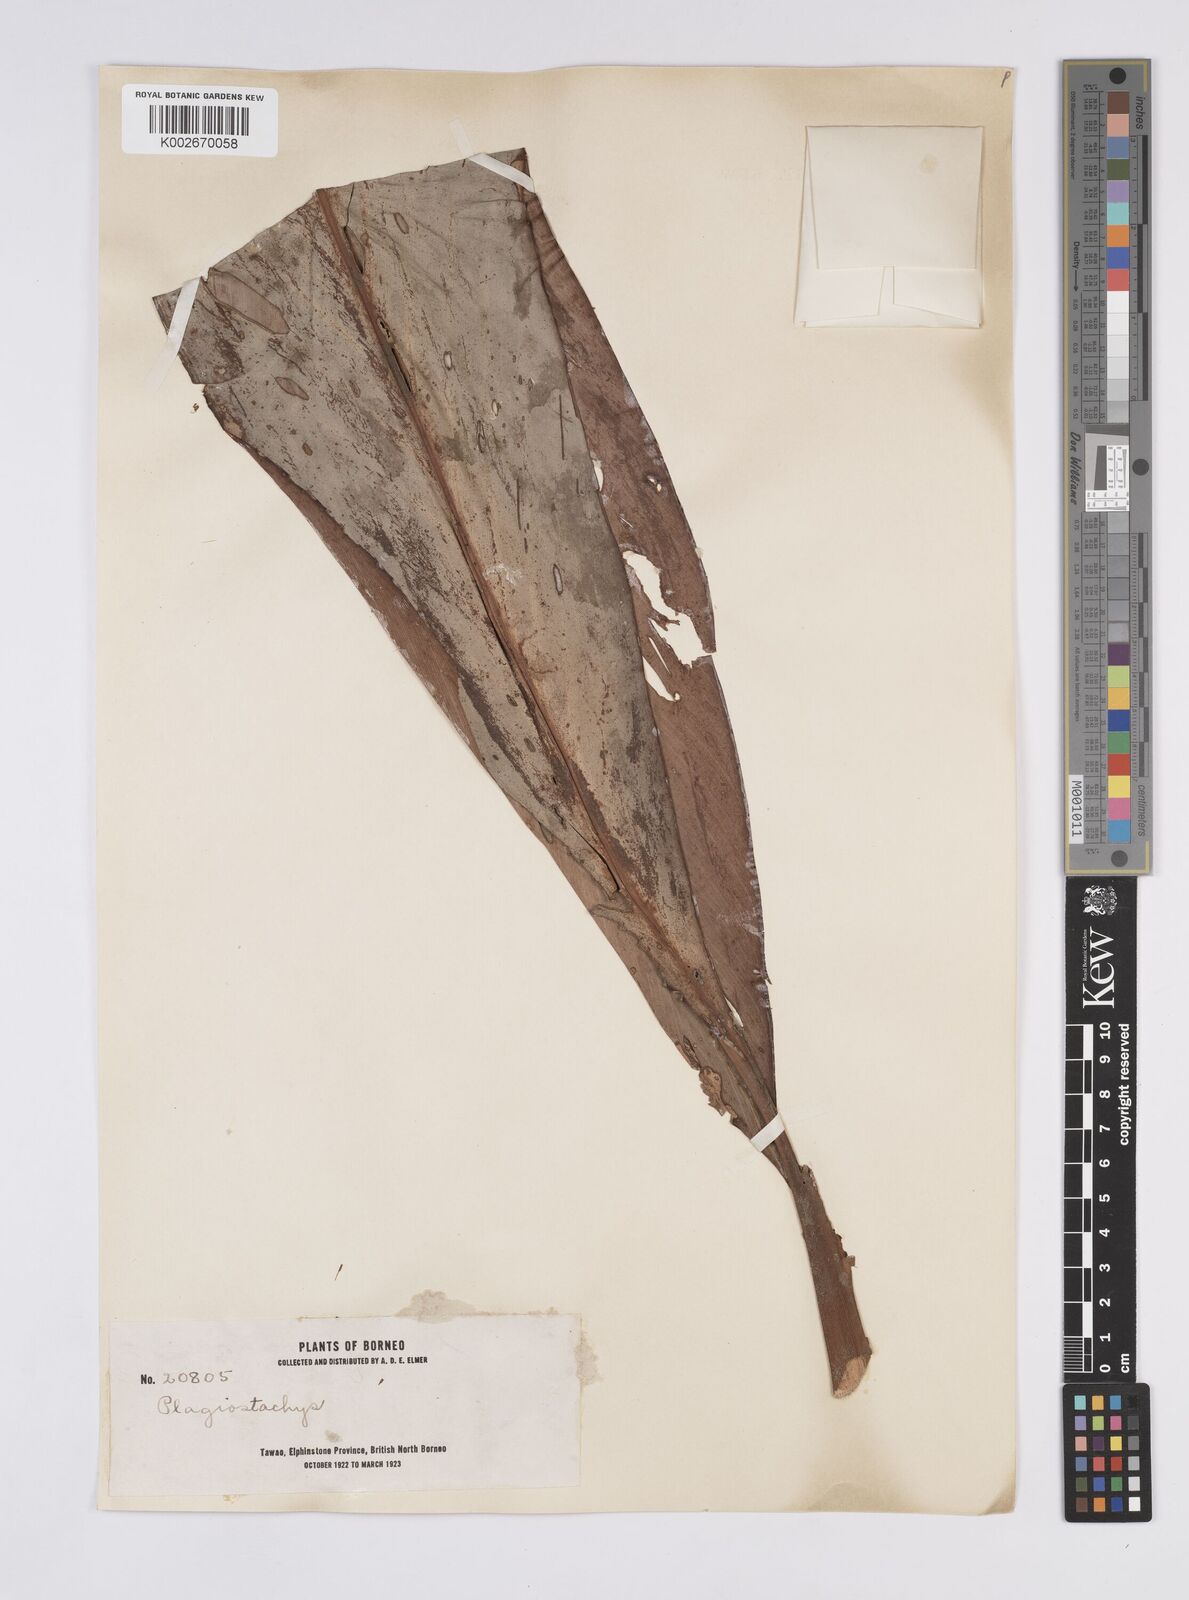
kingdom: Plantae
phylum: Tracheophyta
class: Liliopsida
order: Zingiberales
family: Zingiberaceae
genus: Plagiostachys
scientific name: Plagiostachys
